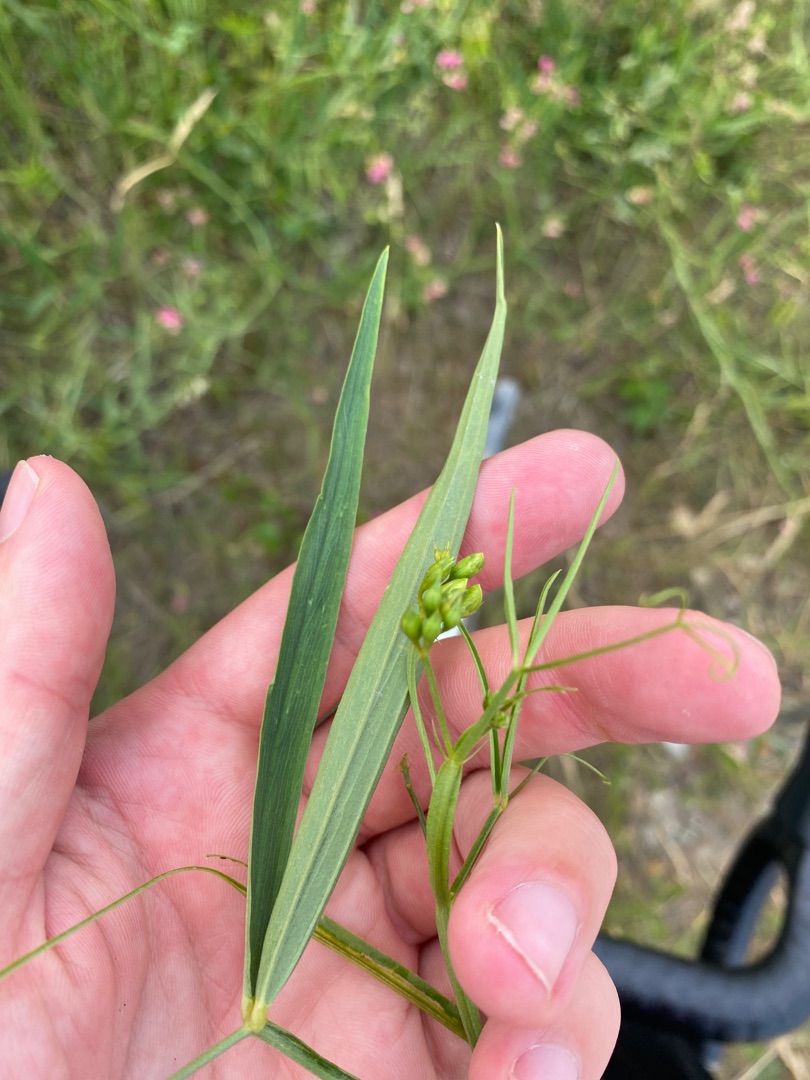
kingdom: Plantae
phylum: Tracheophyta
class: Magnoliopsida
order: Fabales
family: Fabaceae
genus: Lathyrus
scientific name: Lathyrus sylvestris
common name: Skov-fladbælg
